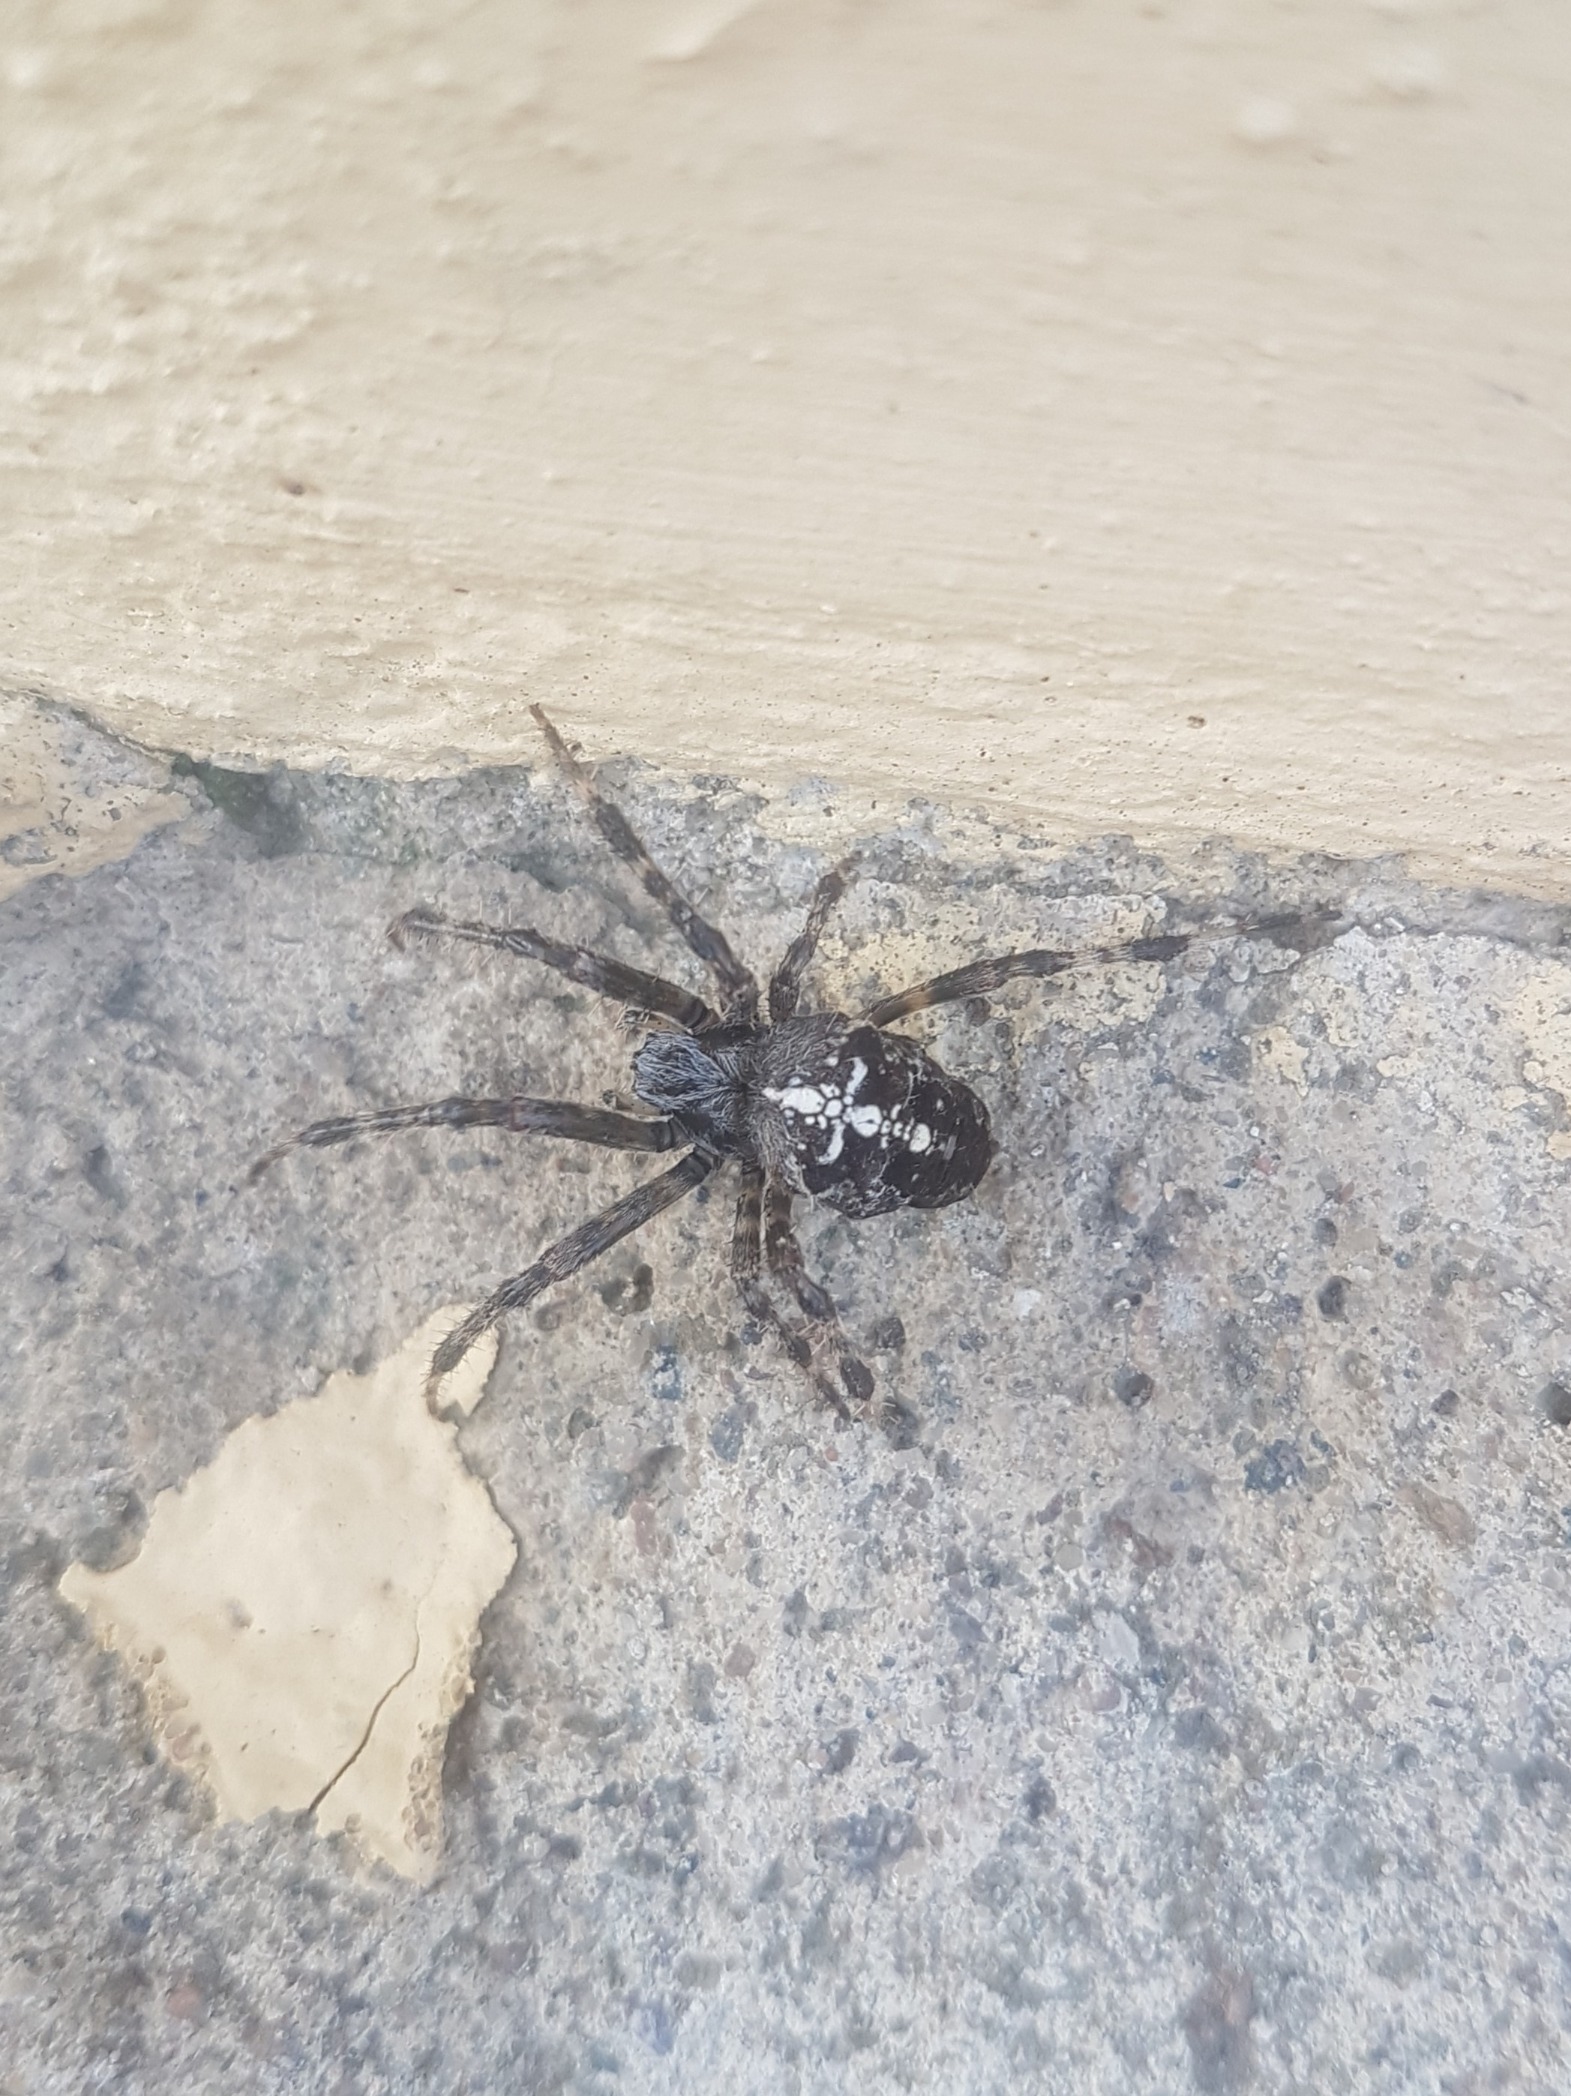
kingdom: Animalia
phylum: Arthropoda
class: Arachnida
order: Araneae
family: Araneidae
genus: Araneus
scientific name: Araneus diadematus
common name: Korsedderkop
